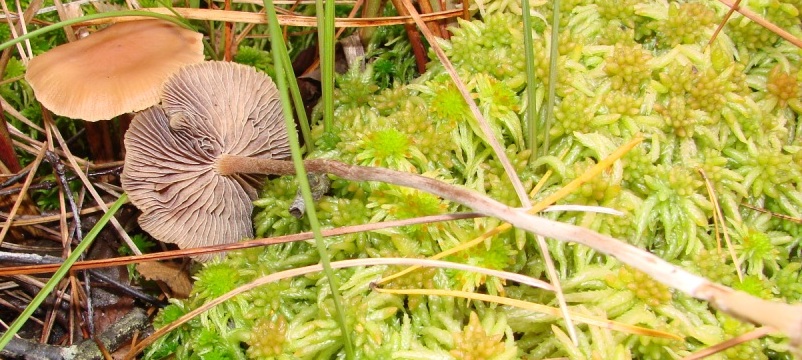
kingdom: Fungi
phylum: Basidiomycota
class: Agaricomycetes
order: Agaricales
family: Strophariaceae
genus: Bogbodia
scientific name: Bogbodia uda
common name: tørve-svovlhat
